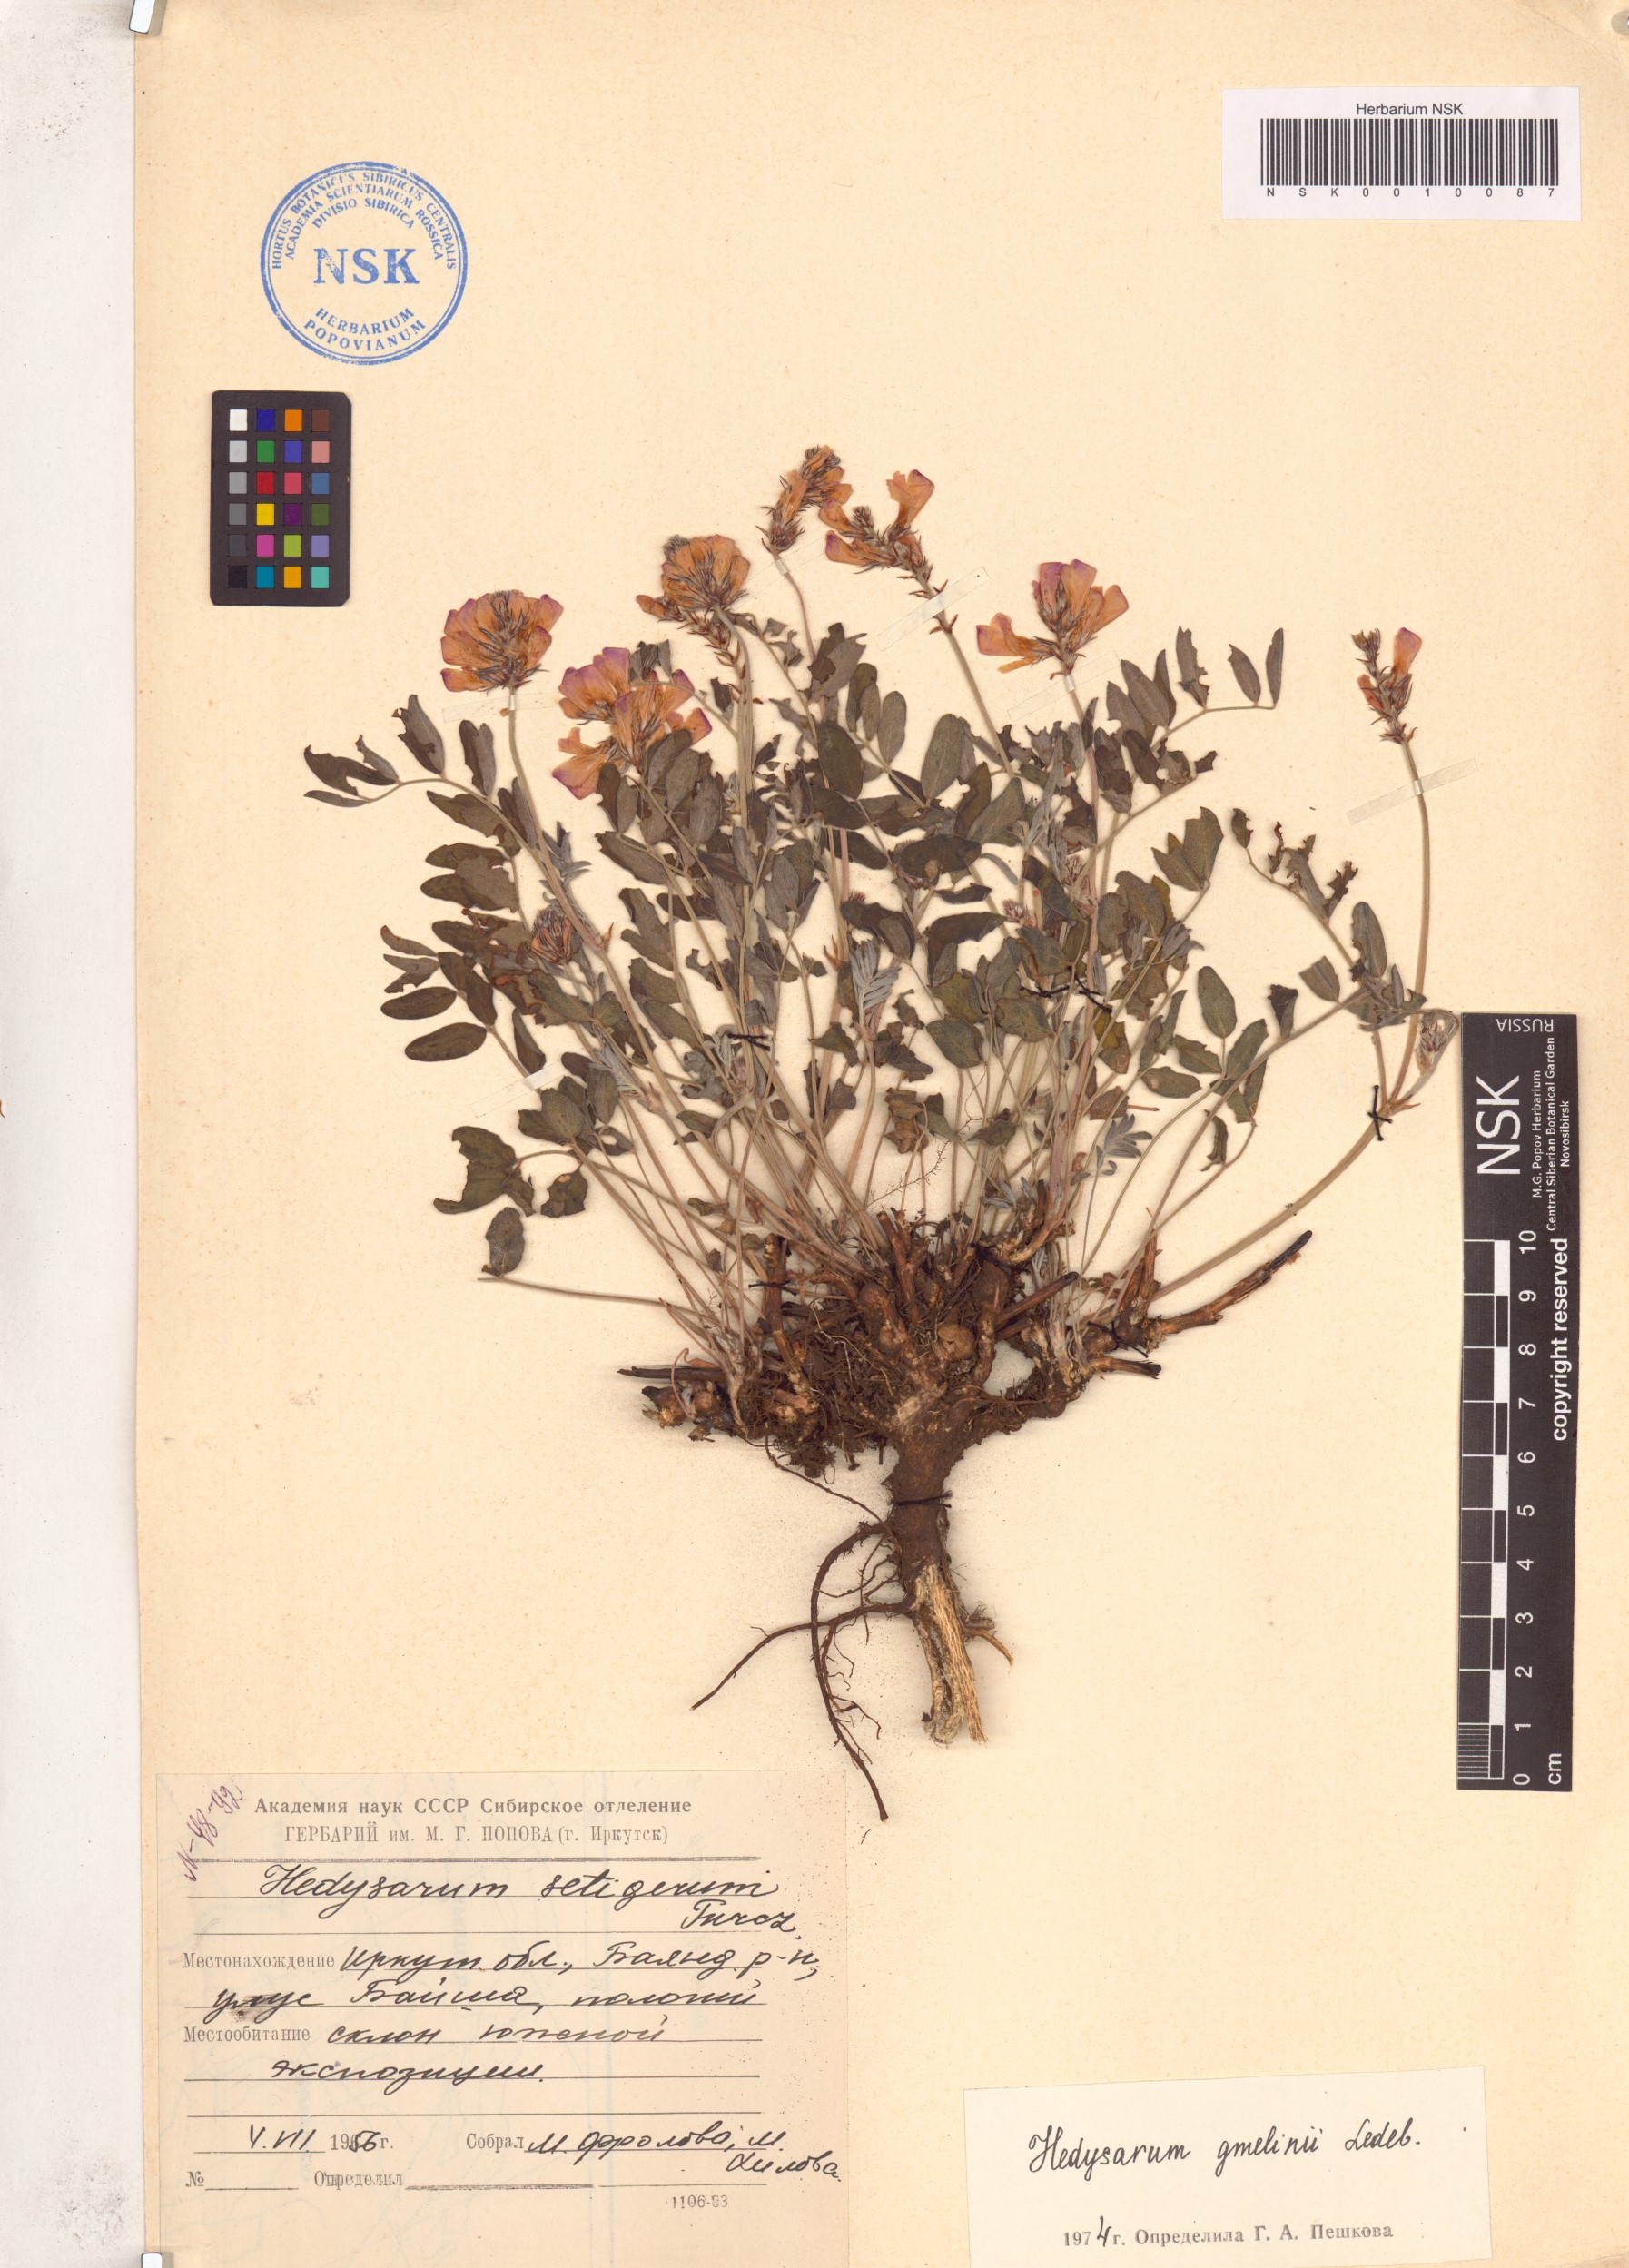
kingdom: Plantae
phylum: Tracheophyta
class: Magnoliopsida
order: Fabales
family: Fabaceae
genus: Hedysarum
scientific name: Hedysarum gmelinii
